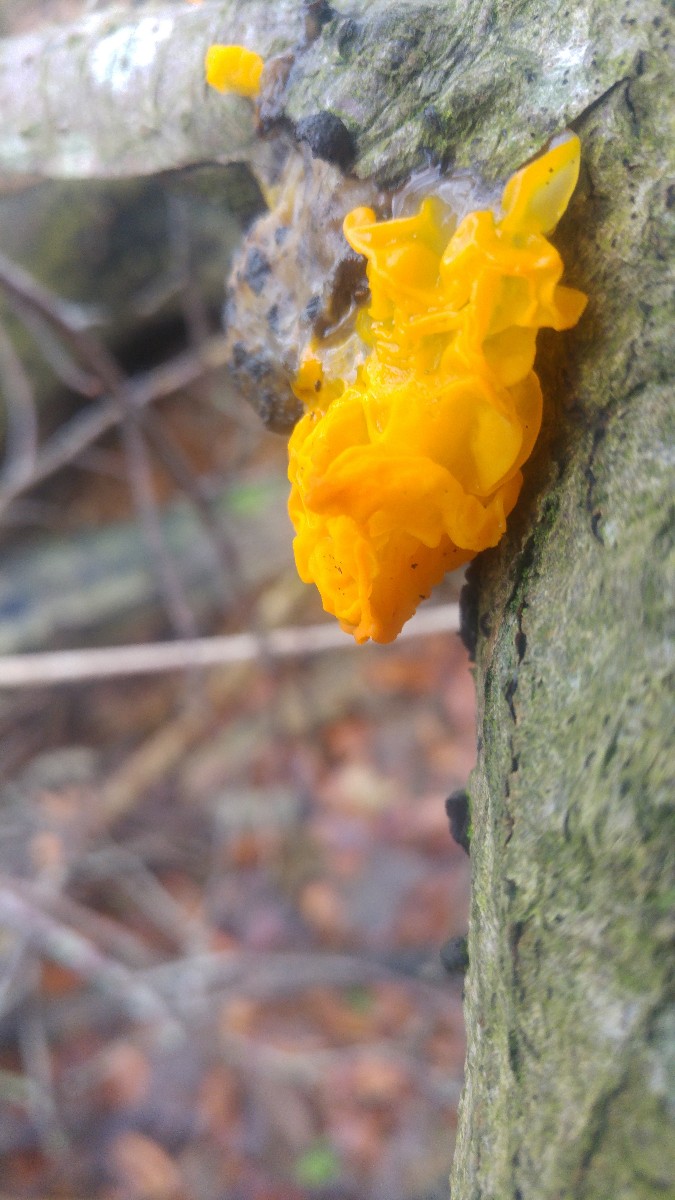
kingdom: Fungi
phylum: Basidiomycota
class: Tremellomycetes
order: Tremellales
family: Tremellaceae
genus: Tremella
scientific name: Tremella mesenterica
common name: gul bævresvamp
